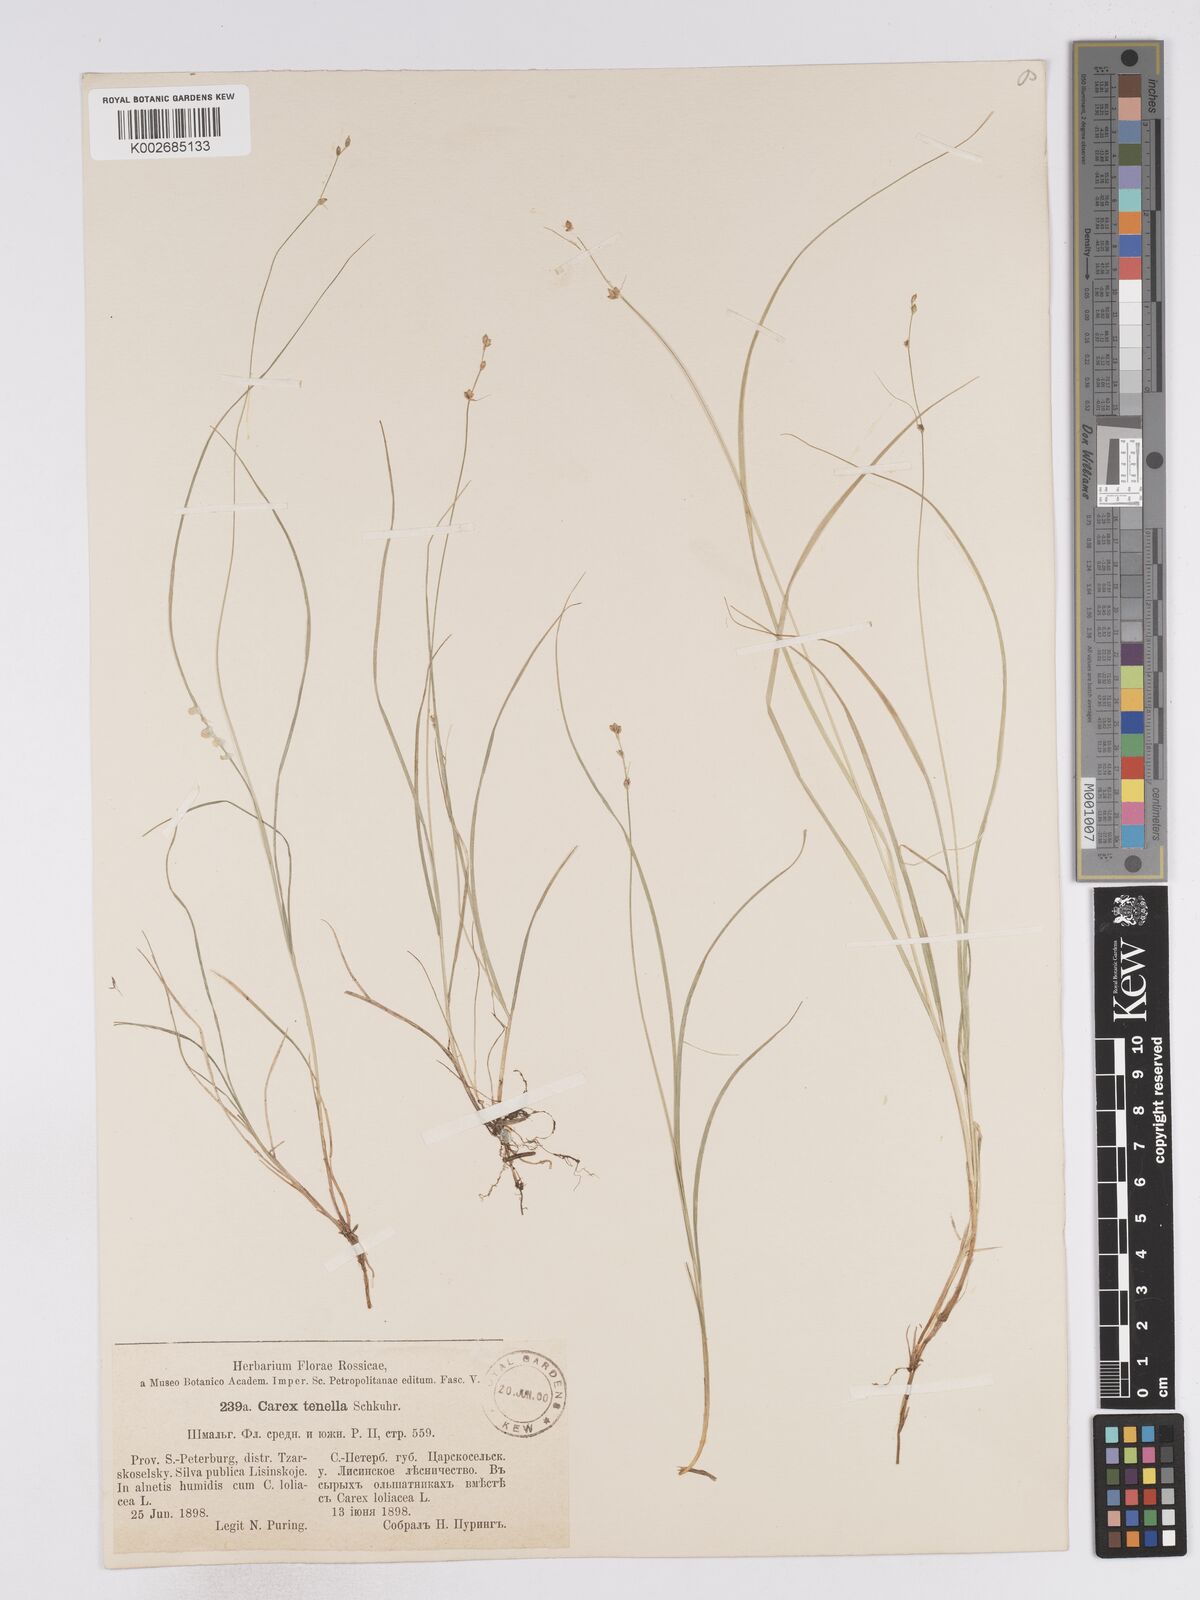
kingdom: Plantae
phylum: Tracheophyta
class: Liliopsida
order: Poales
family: Cyperaceae
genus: Carex
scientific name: Carex disperma
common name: Short-leaved sedge
